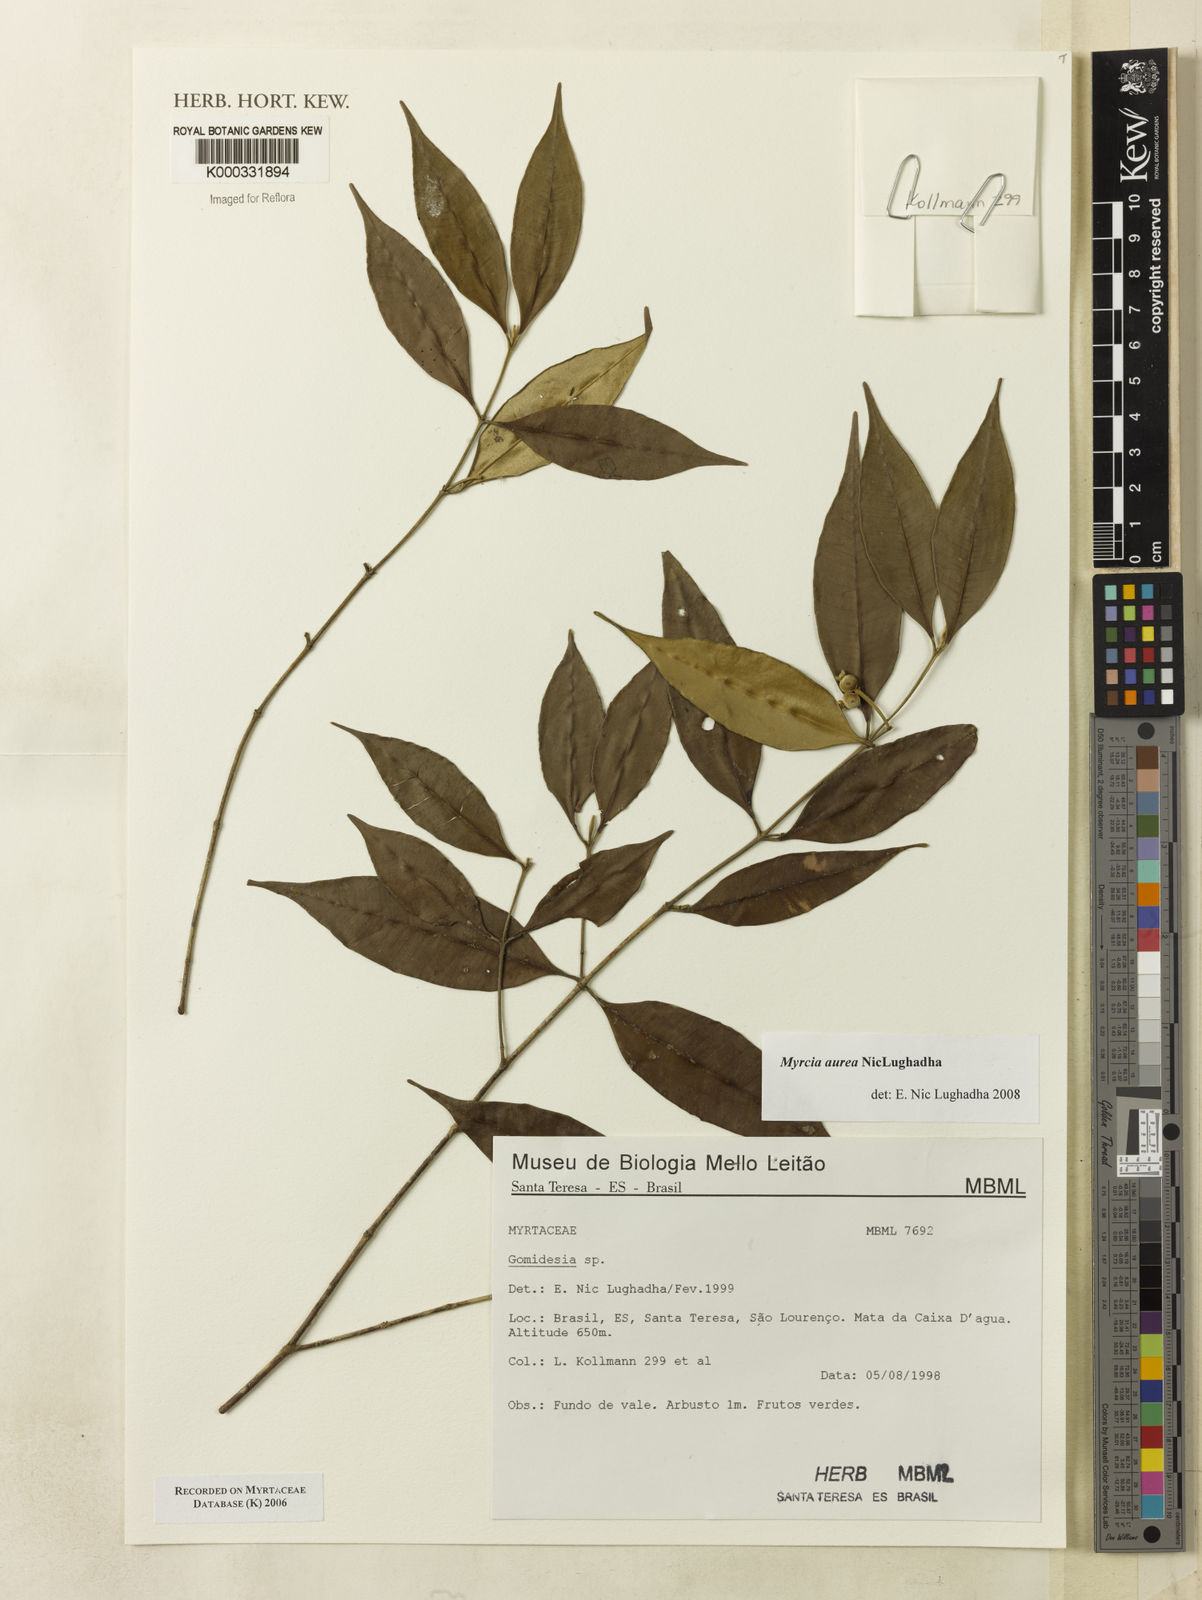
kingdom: Plantae
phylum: Tracheophyta
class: Magnoliopsida
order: Myrtales
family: Myrtaceae
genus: Myrcia
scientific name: Myrcia flagellaris
